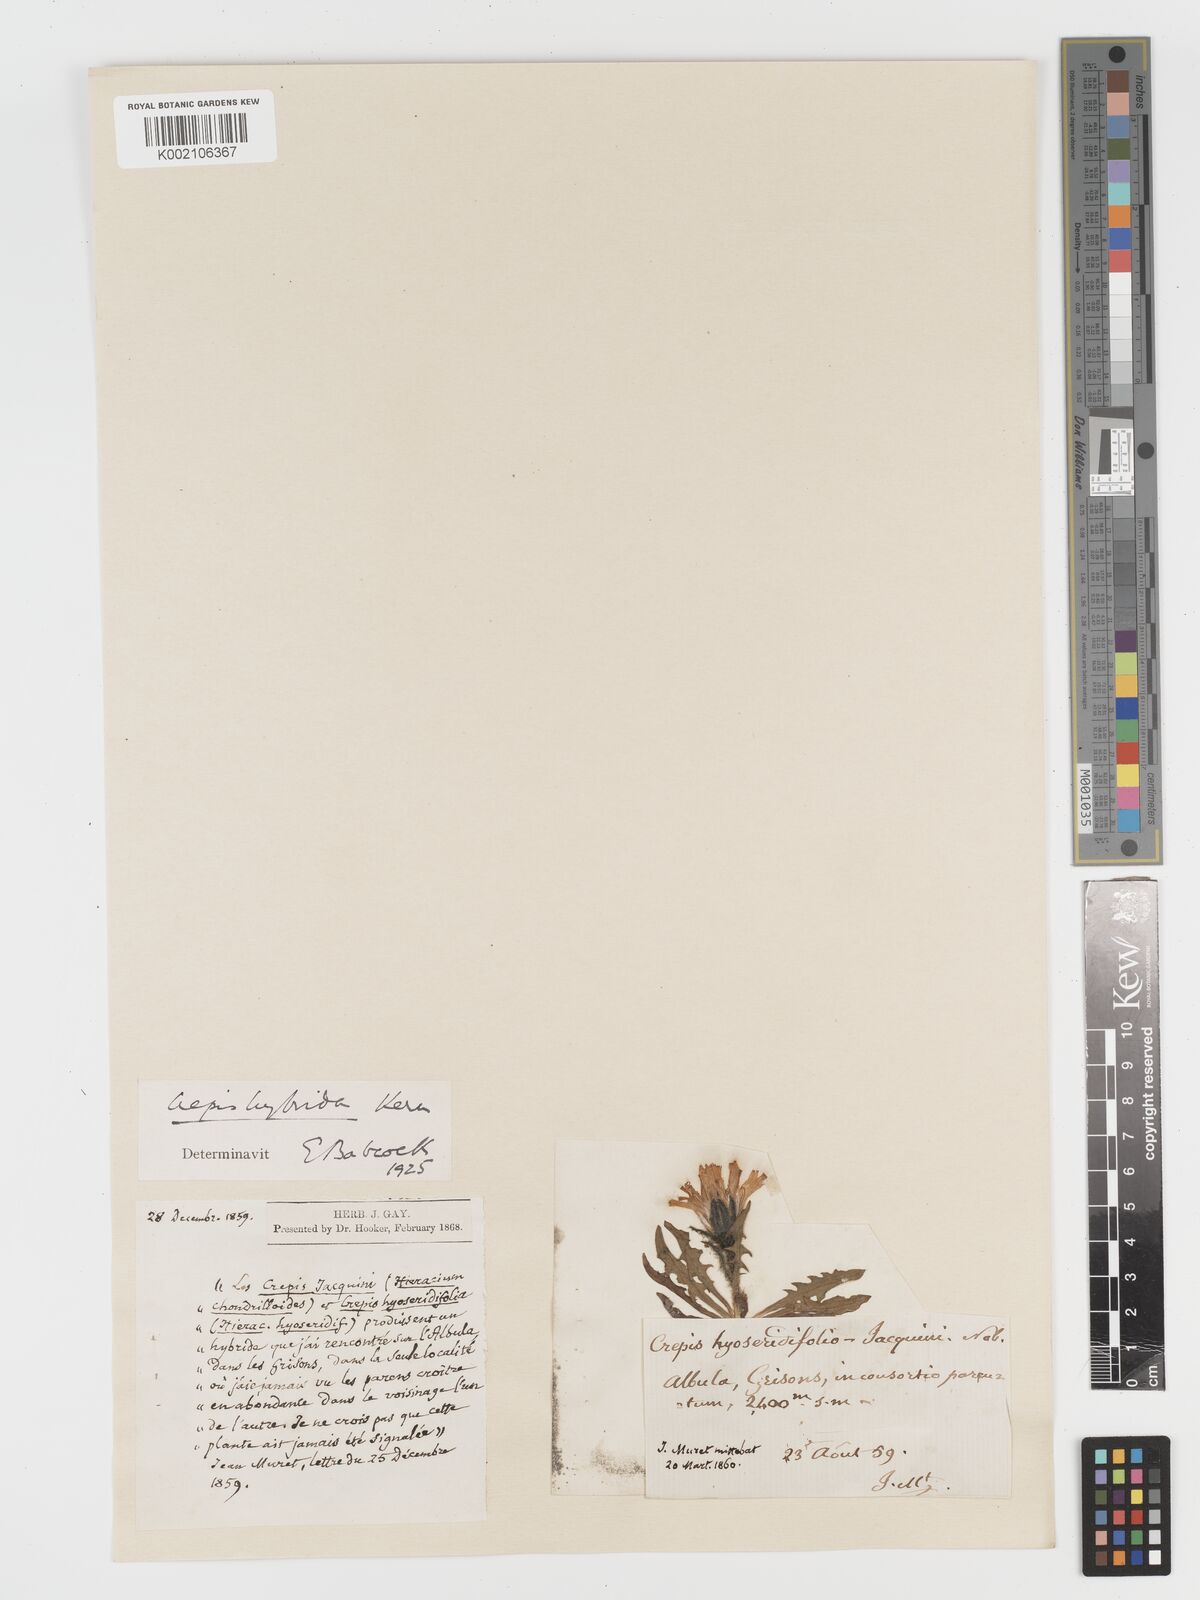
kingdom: Plantae
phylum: Tracheophyta
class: Magnoliopsida
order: Asterales
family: Asteraceae
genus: Crepis
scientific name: Crepis hybrida
